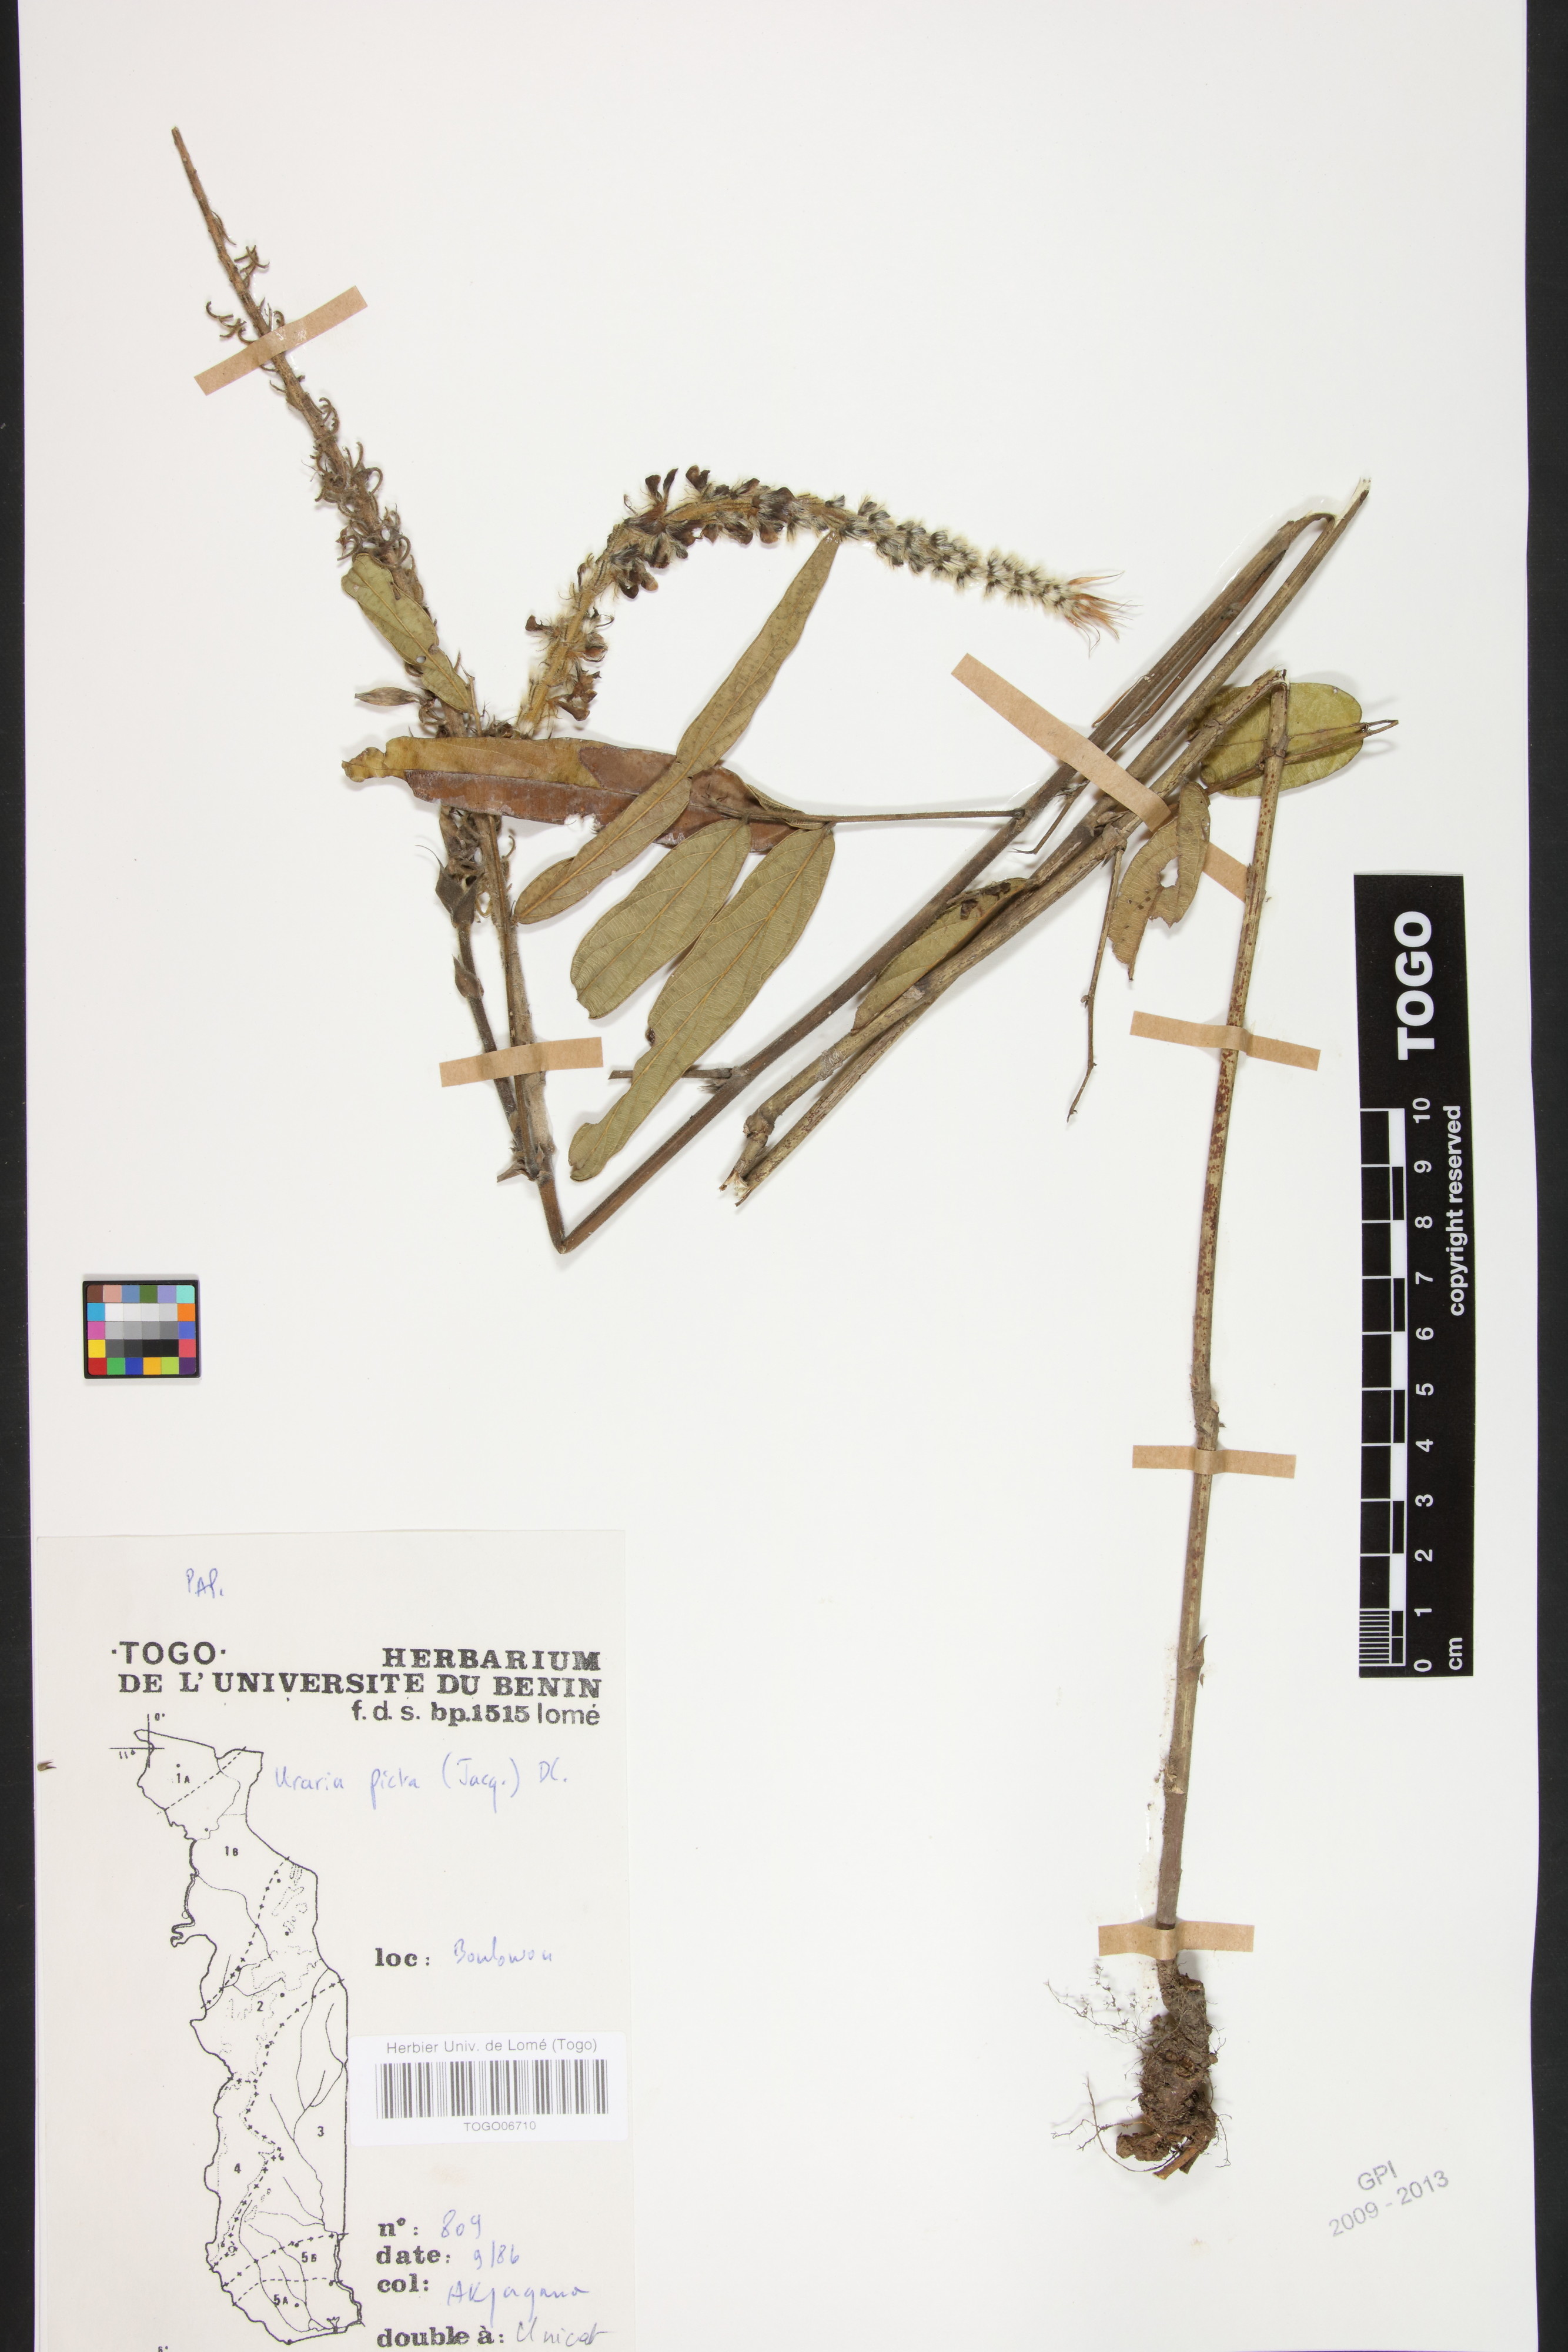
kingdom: Plantae
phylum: Tracheophyta
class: Magnoliopsida
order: Fabales
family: Fabaceae
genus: Uraria
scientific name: Uraria picta
